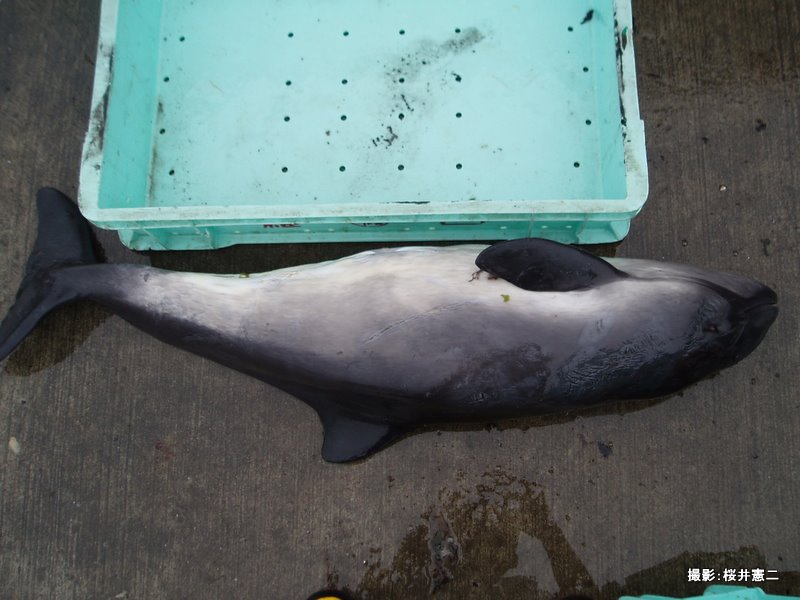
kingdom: Animalia
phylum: Chordata
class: Mammalia
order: Cetacea
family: Phocoenidae
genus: Phocoena
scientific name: Phocoena phocoena
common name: Harbour porpoise
